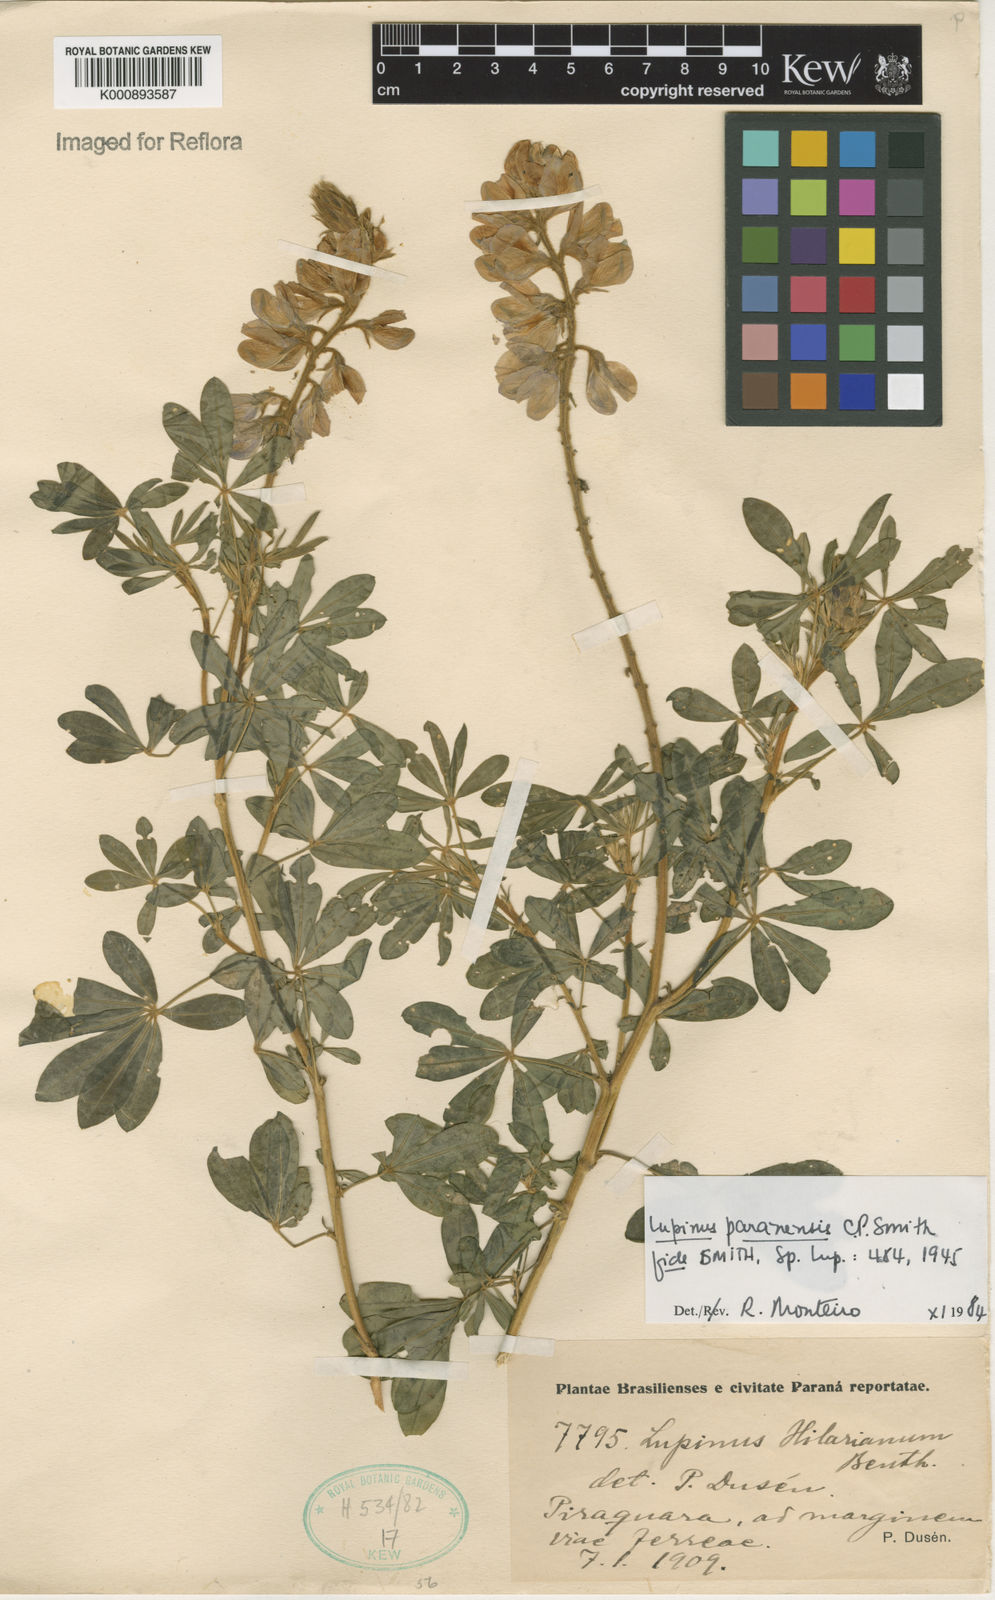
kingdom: Plantae
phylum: Tracheophyta
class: Magnoliopsida
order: Fabales
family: Fabaceae
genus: Lupinus
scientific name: Lupinus paranensis
